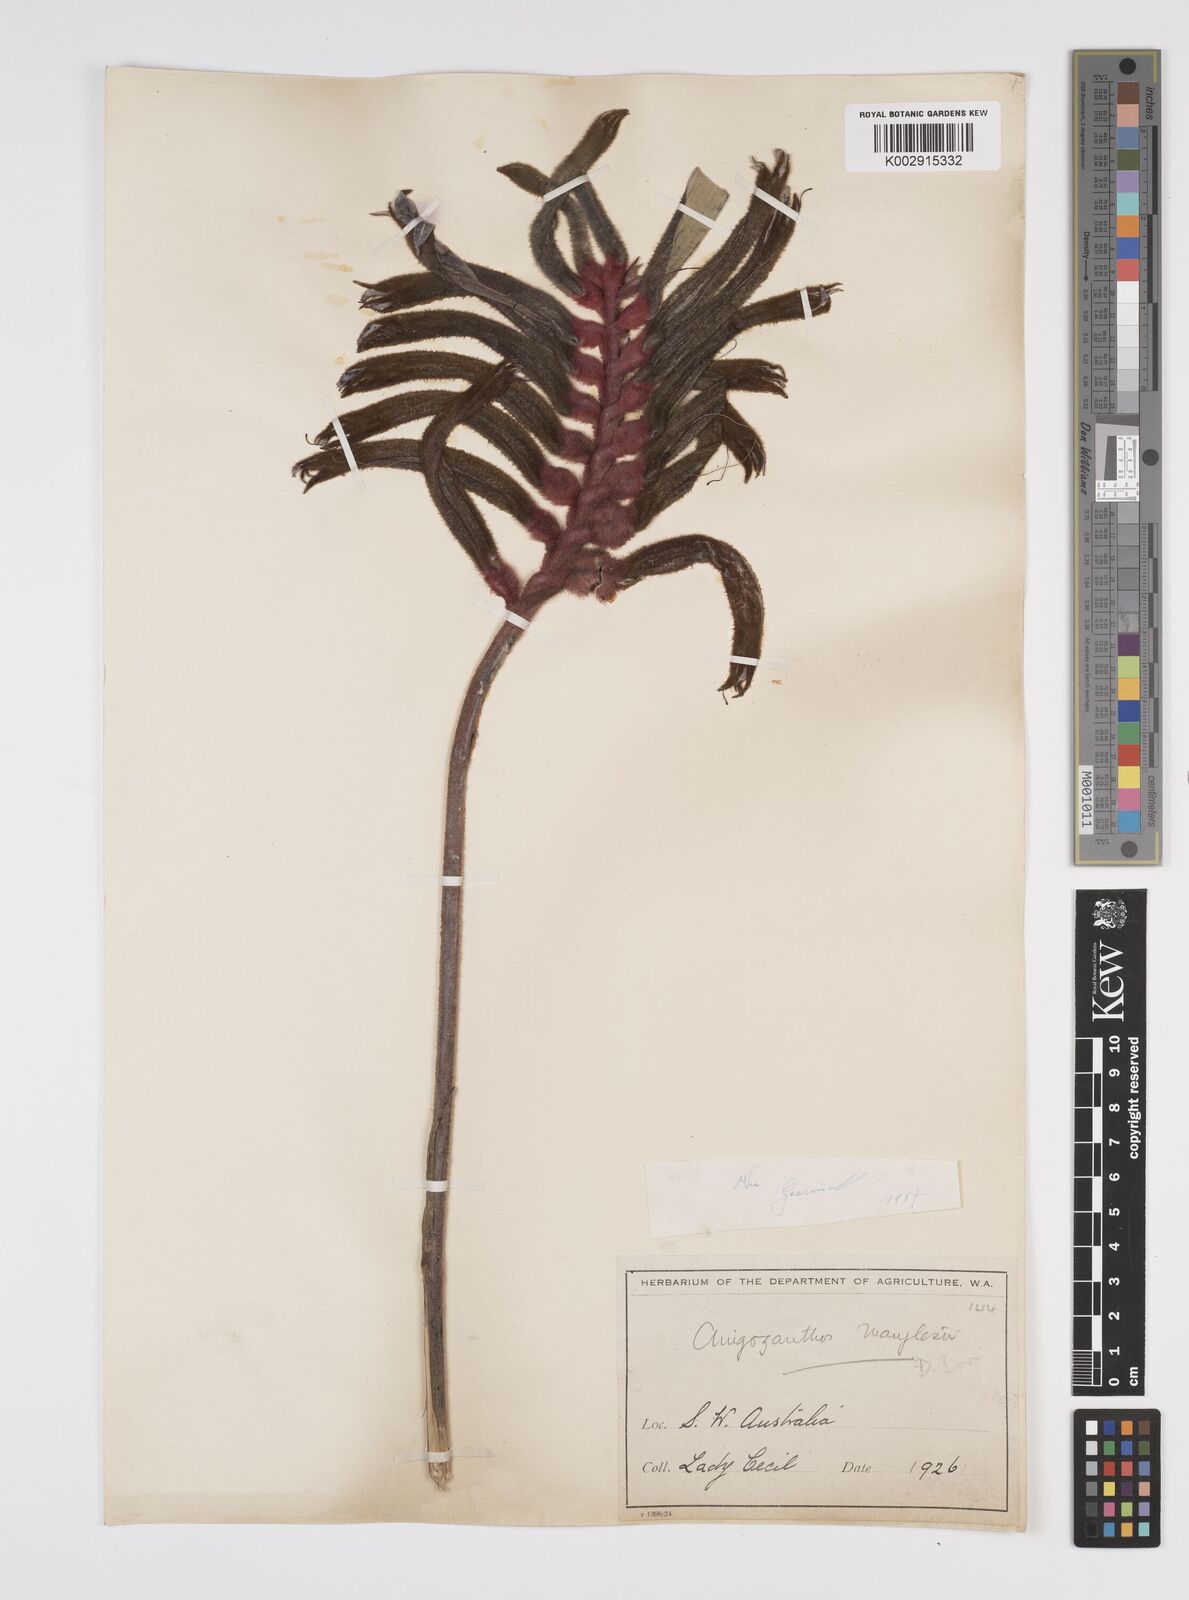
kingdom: Plantae
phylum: Tracheophyta
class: Liliopsida
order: Commelinales
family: Haemodoraceae
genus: Anigozanthos
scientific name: Anigozanthos manglesii
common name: Mangles's kangaroo-paw
